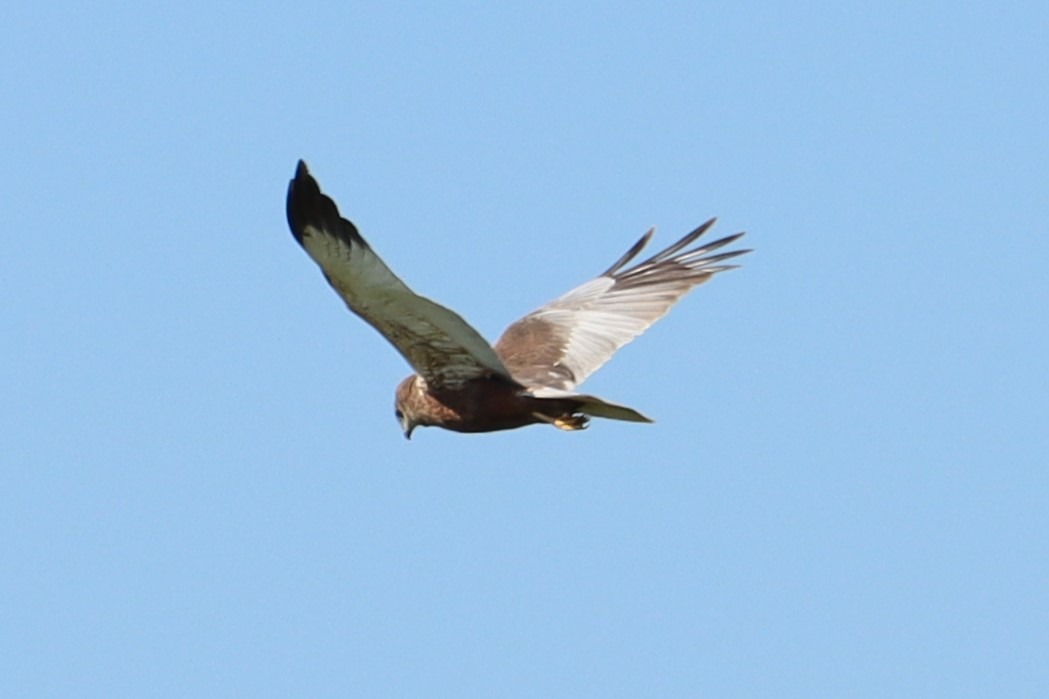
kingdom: Animalia
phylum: Chordata
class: Aves
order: Accipitriformes
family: Accipitridae
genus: Circus
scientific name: Circus aeruginosus
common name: Rørhøg
